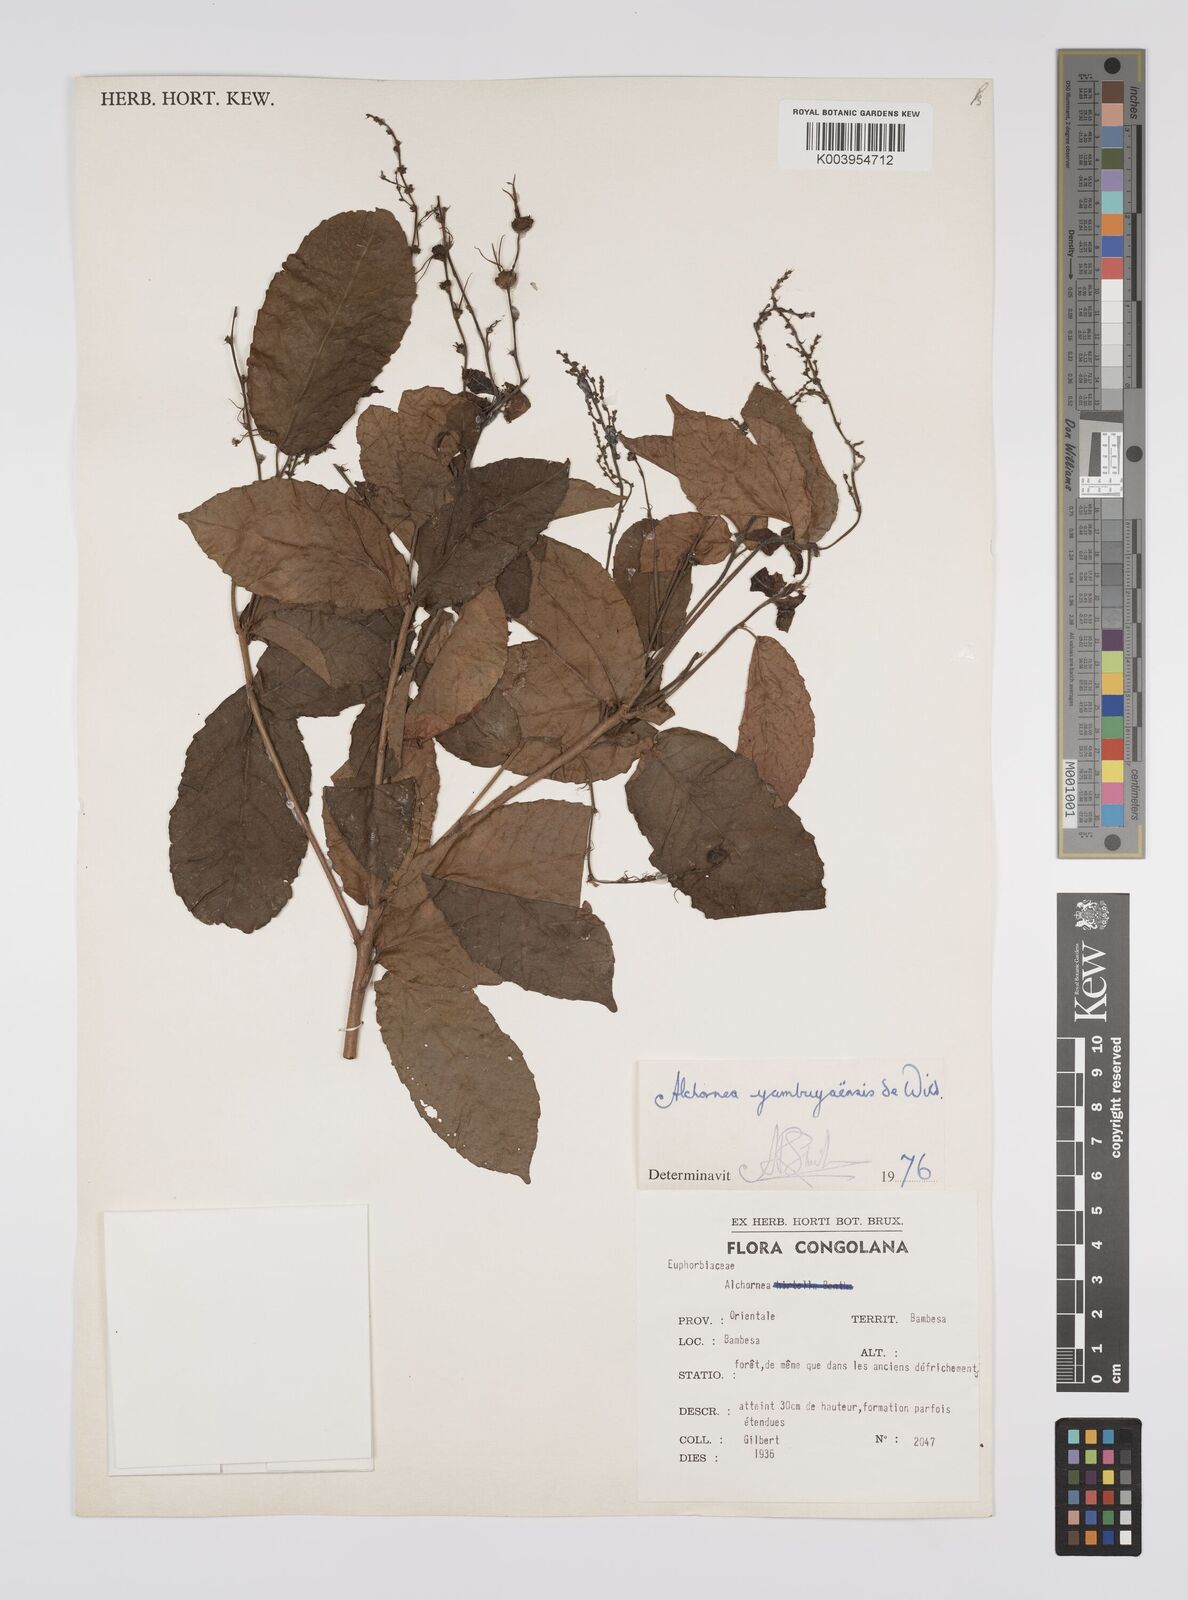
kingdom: Plantae
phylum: Tracheophyta
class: Magnoliopsida
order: Malpighiales
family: Euphorbiaceae
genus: Alchornea
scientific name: Alchornea yambuyaensis
